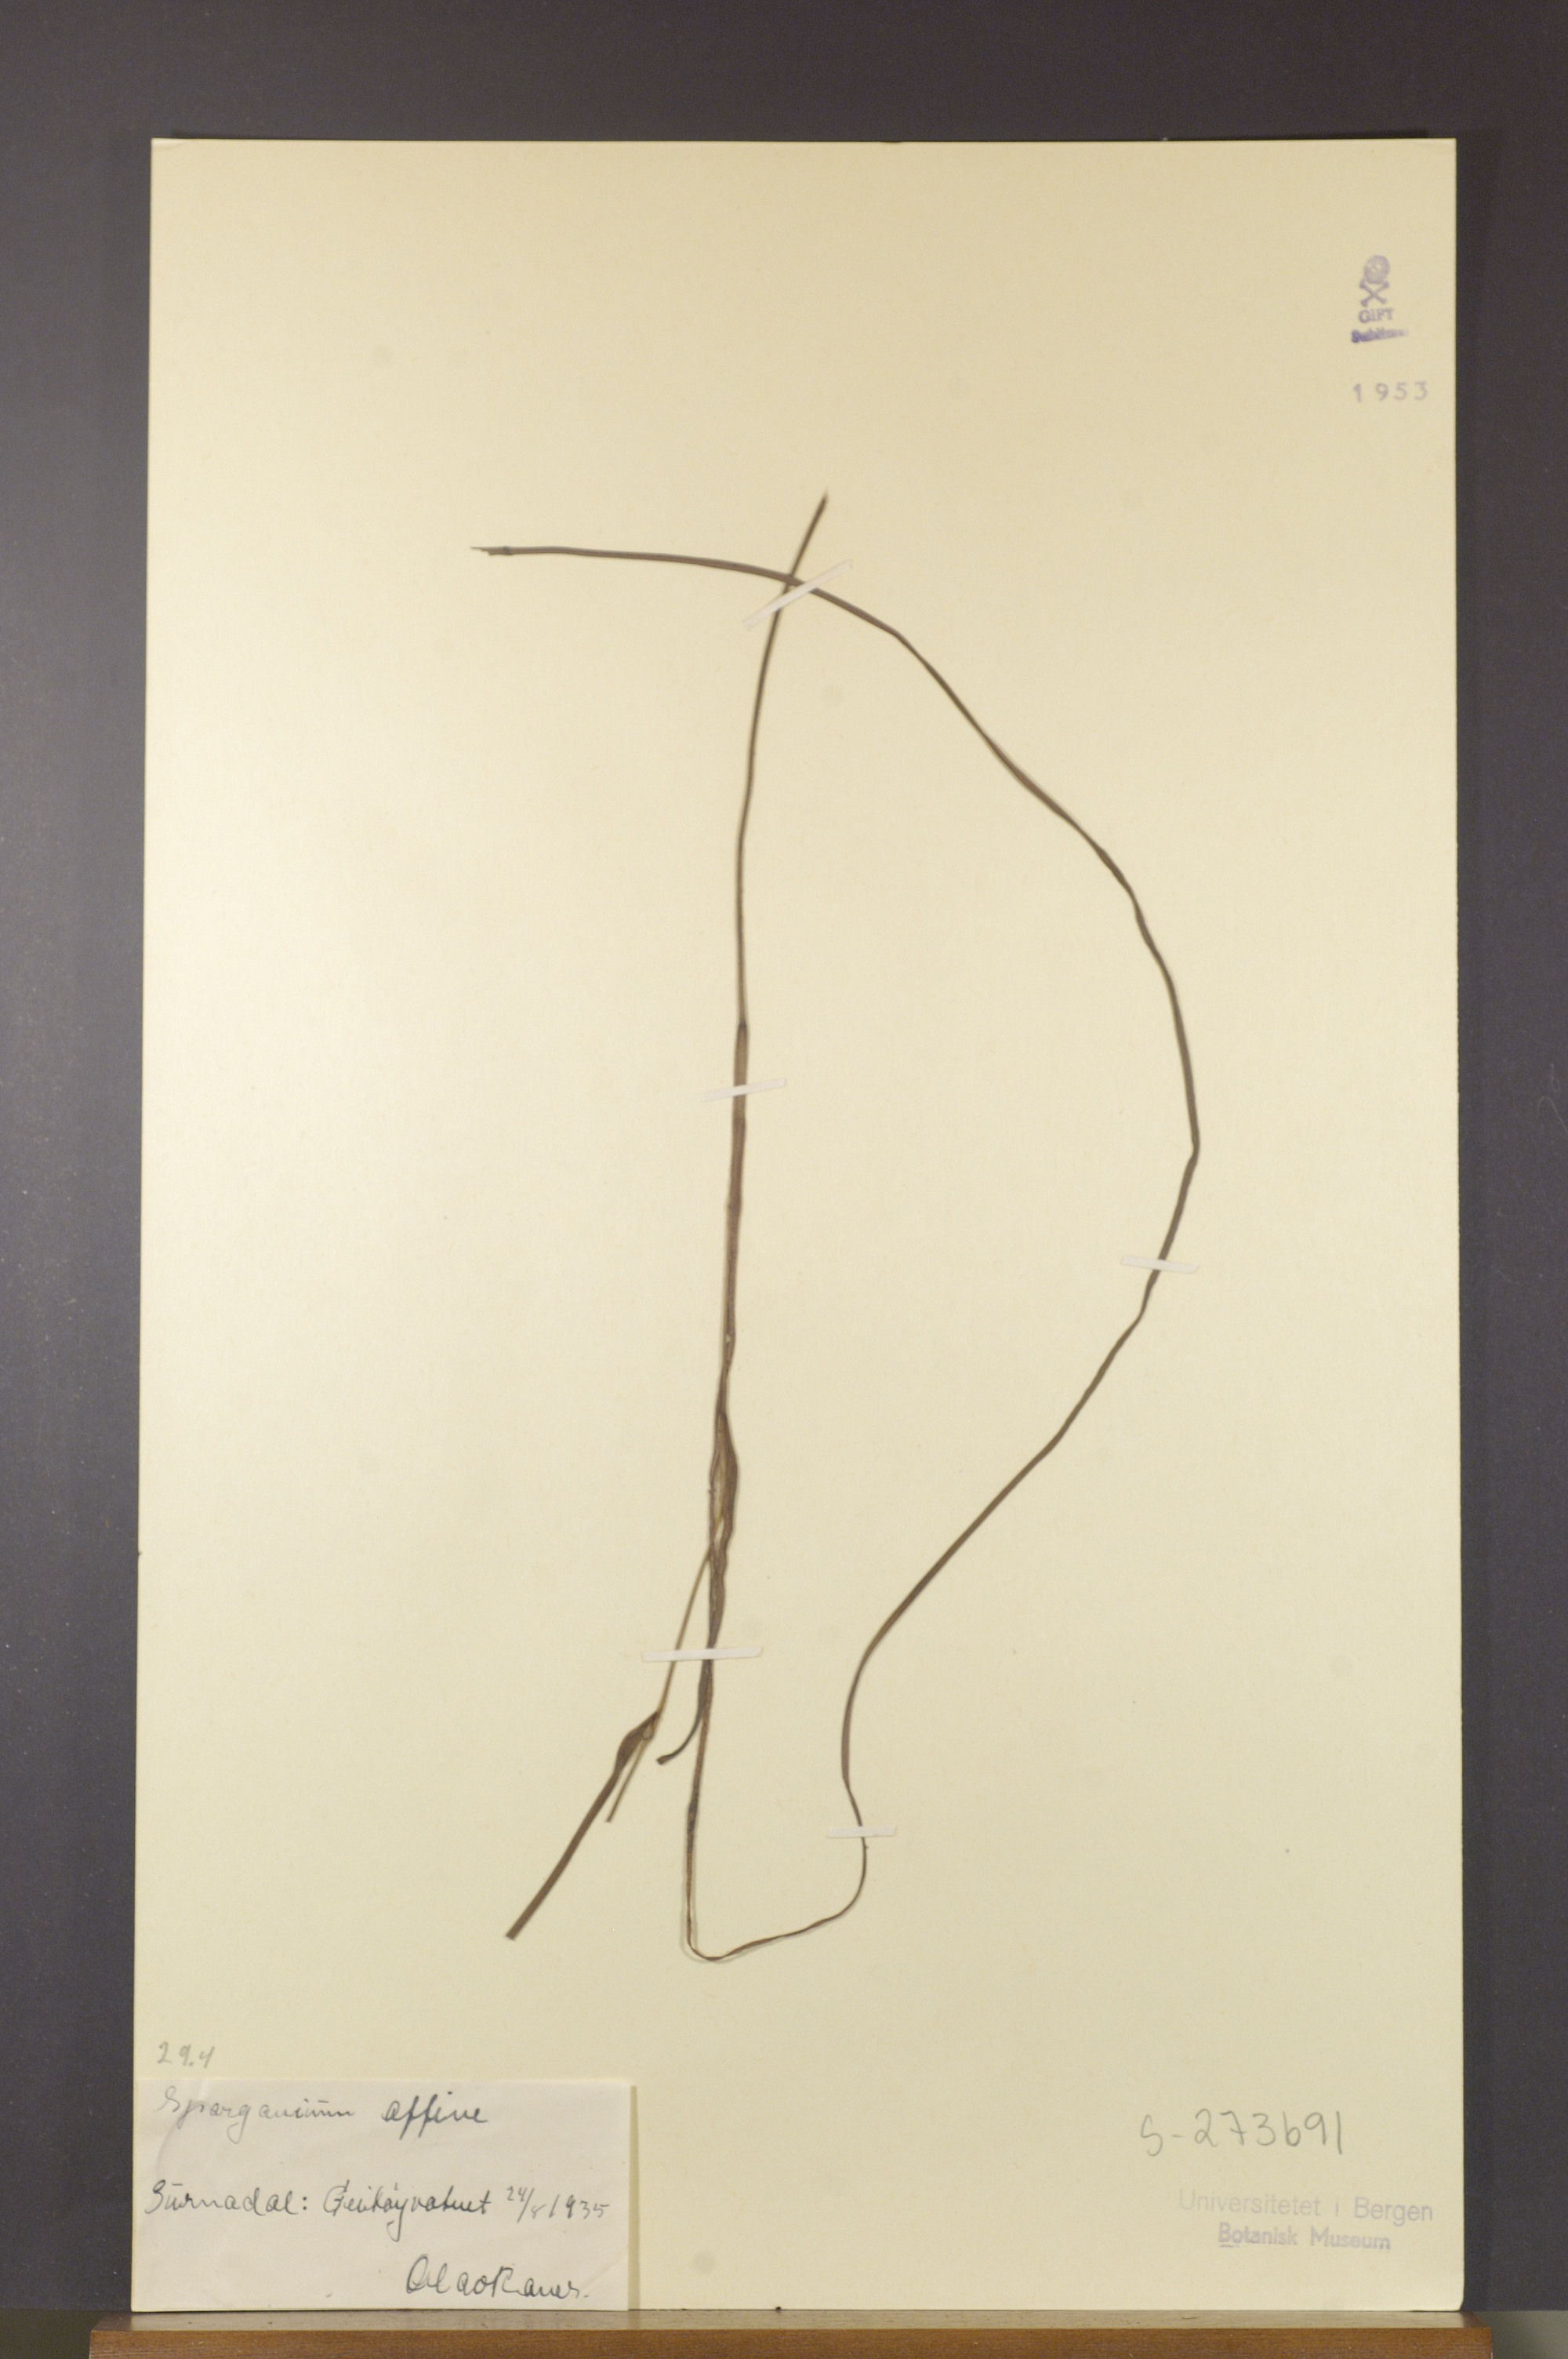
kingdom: Plantae
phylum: Tracheophyta
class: Liliopsida
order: Poales
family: Typhaceae
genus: Sparganium
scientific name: Sparganium angustifolium
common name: Floating bur-reed
